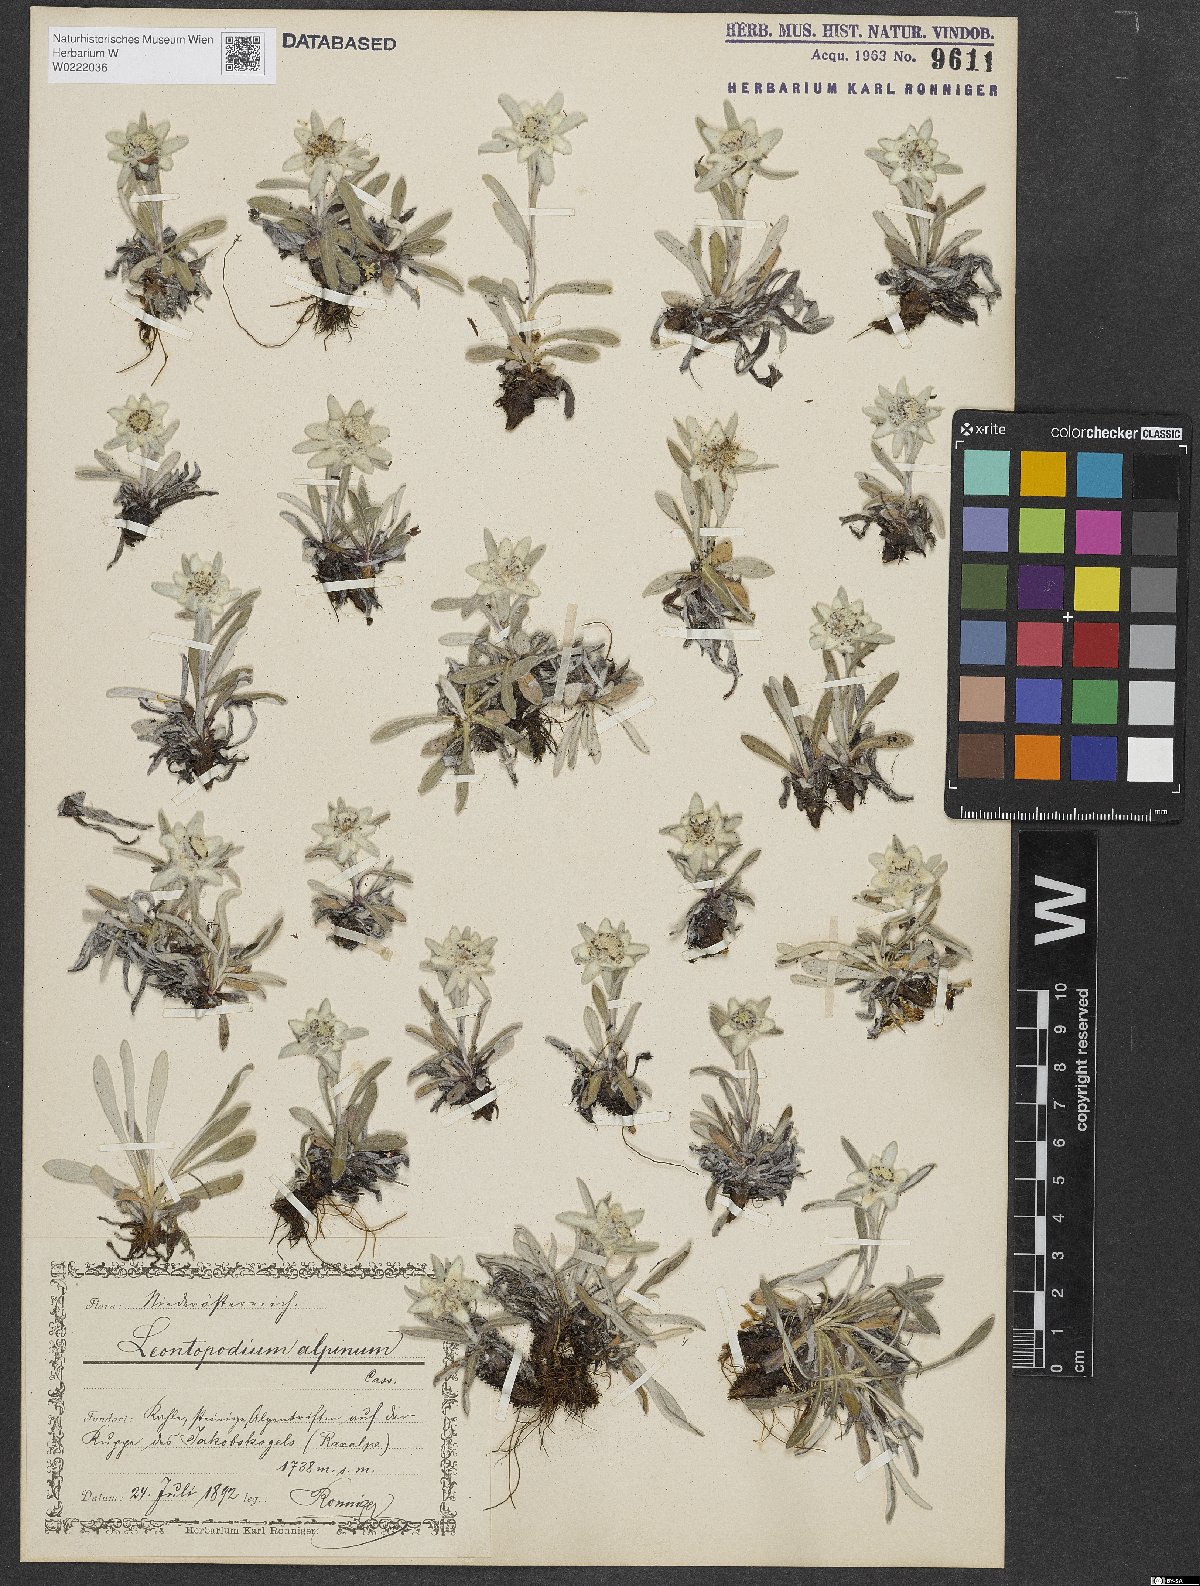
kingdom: Plantae
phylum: Tracheophyta
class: Magnoliopsida
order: Asterales
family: Asteraceae
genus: Leontopodium
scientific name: Leontopodium nivale
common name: Edelweiss
